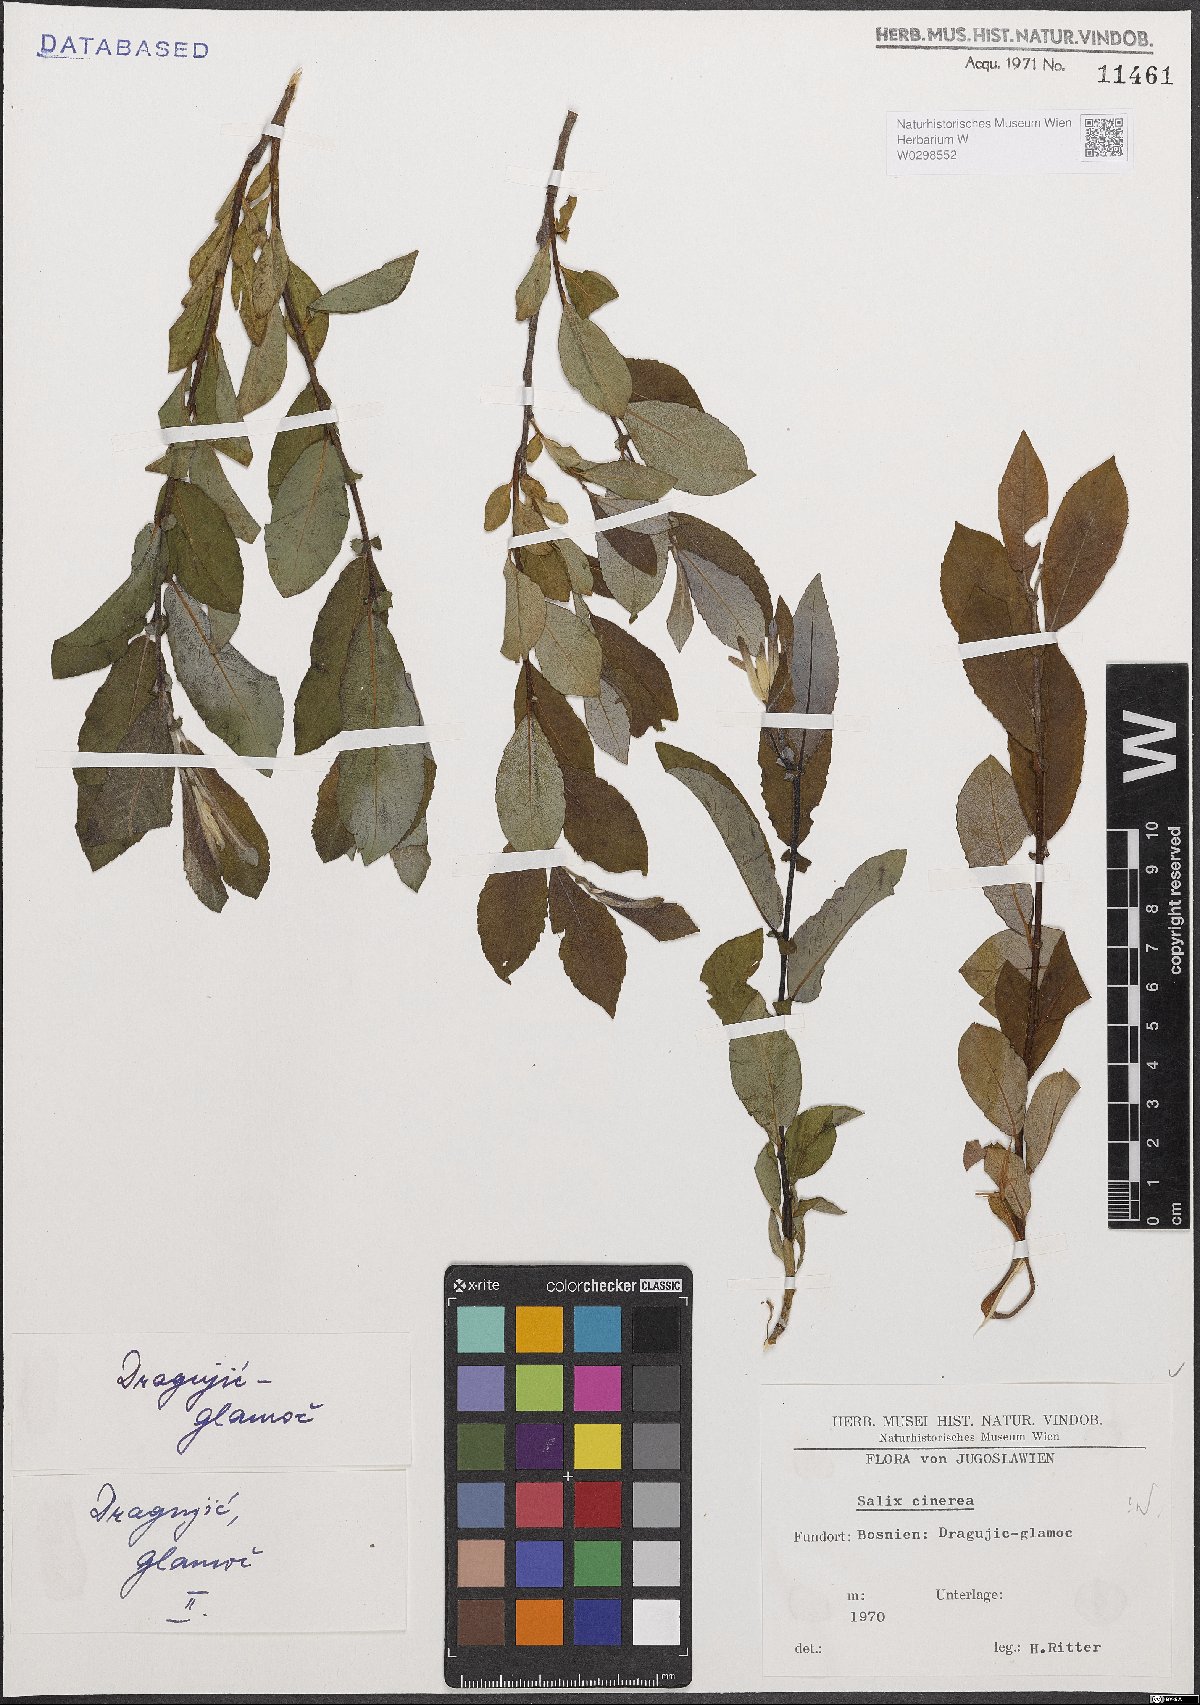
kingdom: Plantae
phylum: Tracheophyta
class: Magnoliopsida
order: Malpighiales
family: Salicaceae
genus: Salix
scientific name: Salix cinerea
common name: Common sallow
